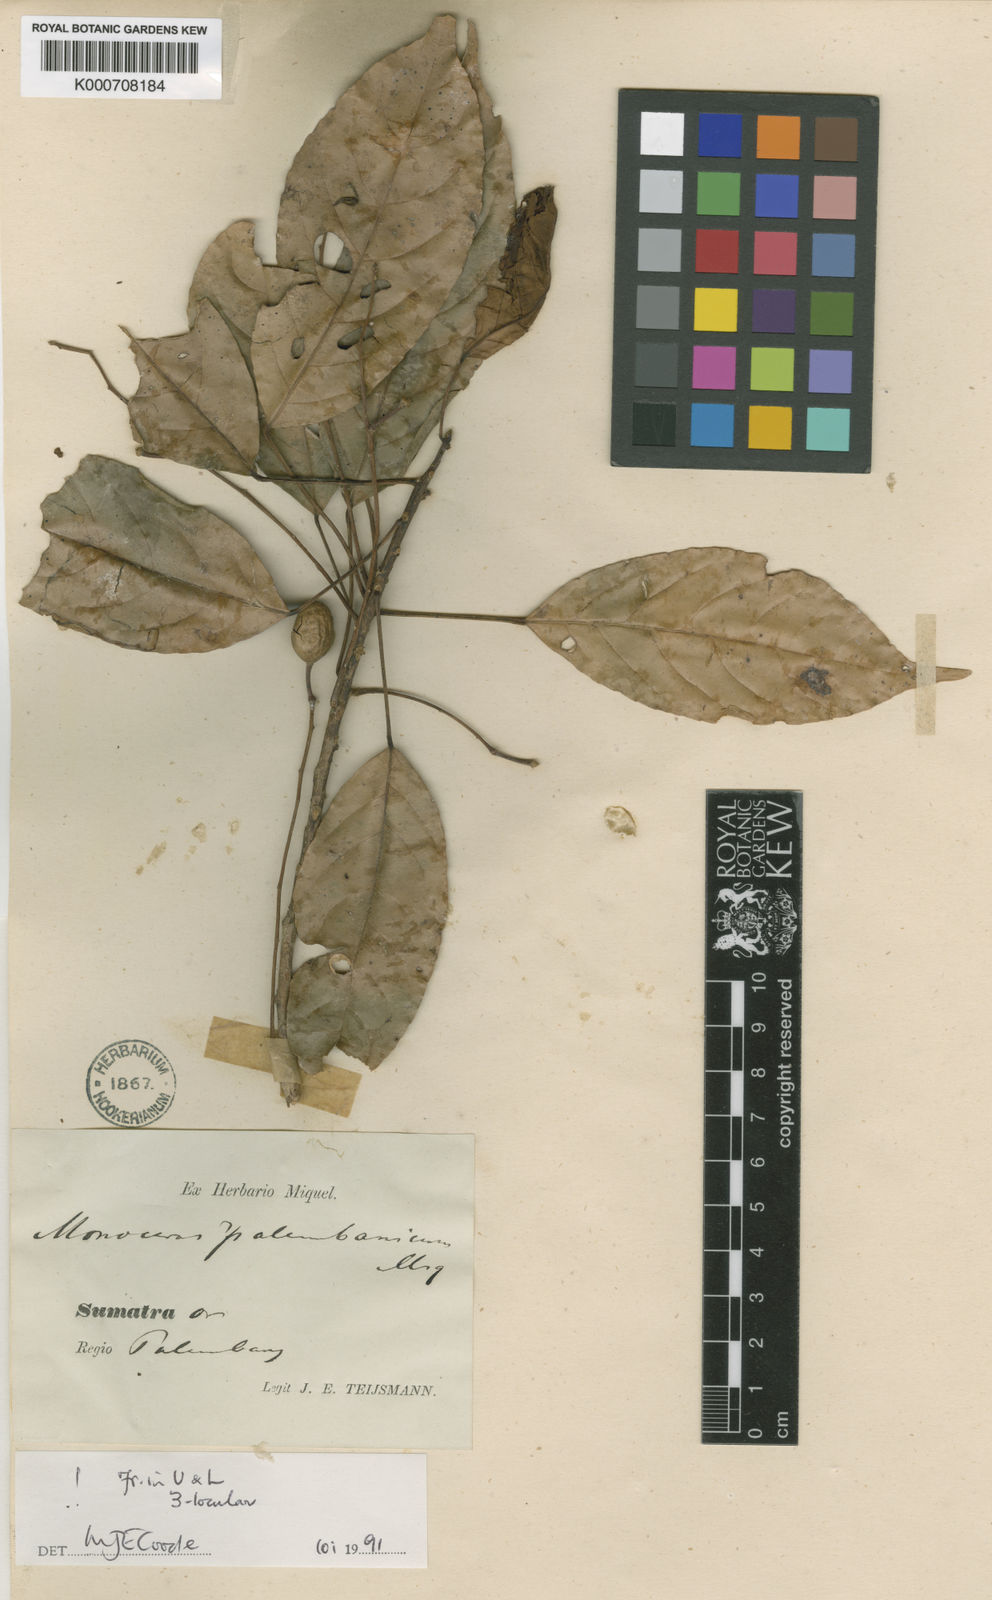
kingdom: Plantae
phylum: Tracheophyta
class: Magnoliopsida
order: Oxalidales
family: Elaeocarpaceae
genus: Elaeocarpus
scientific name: Elaeocarpus palembanicus
